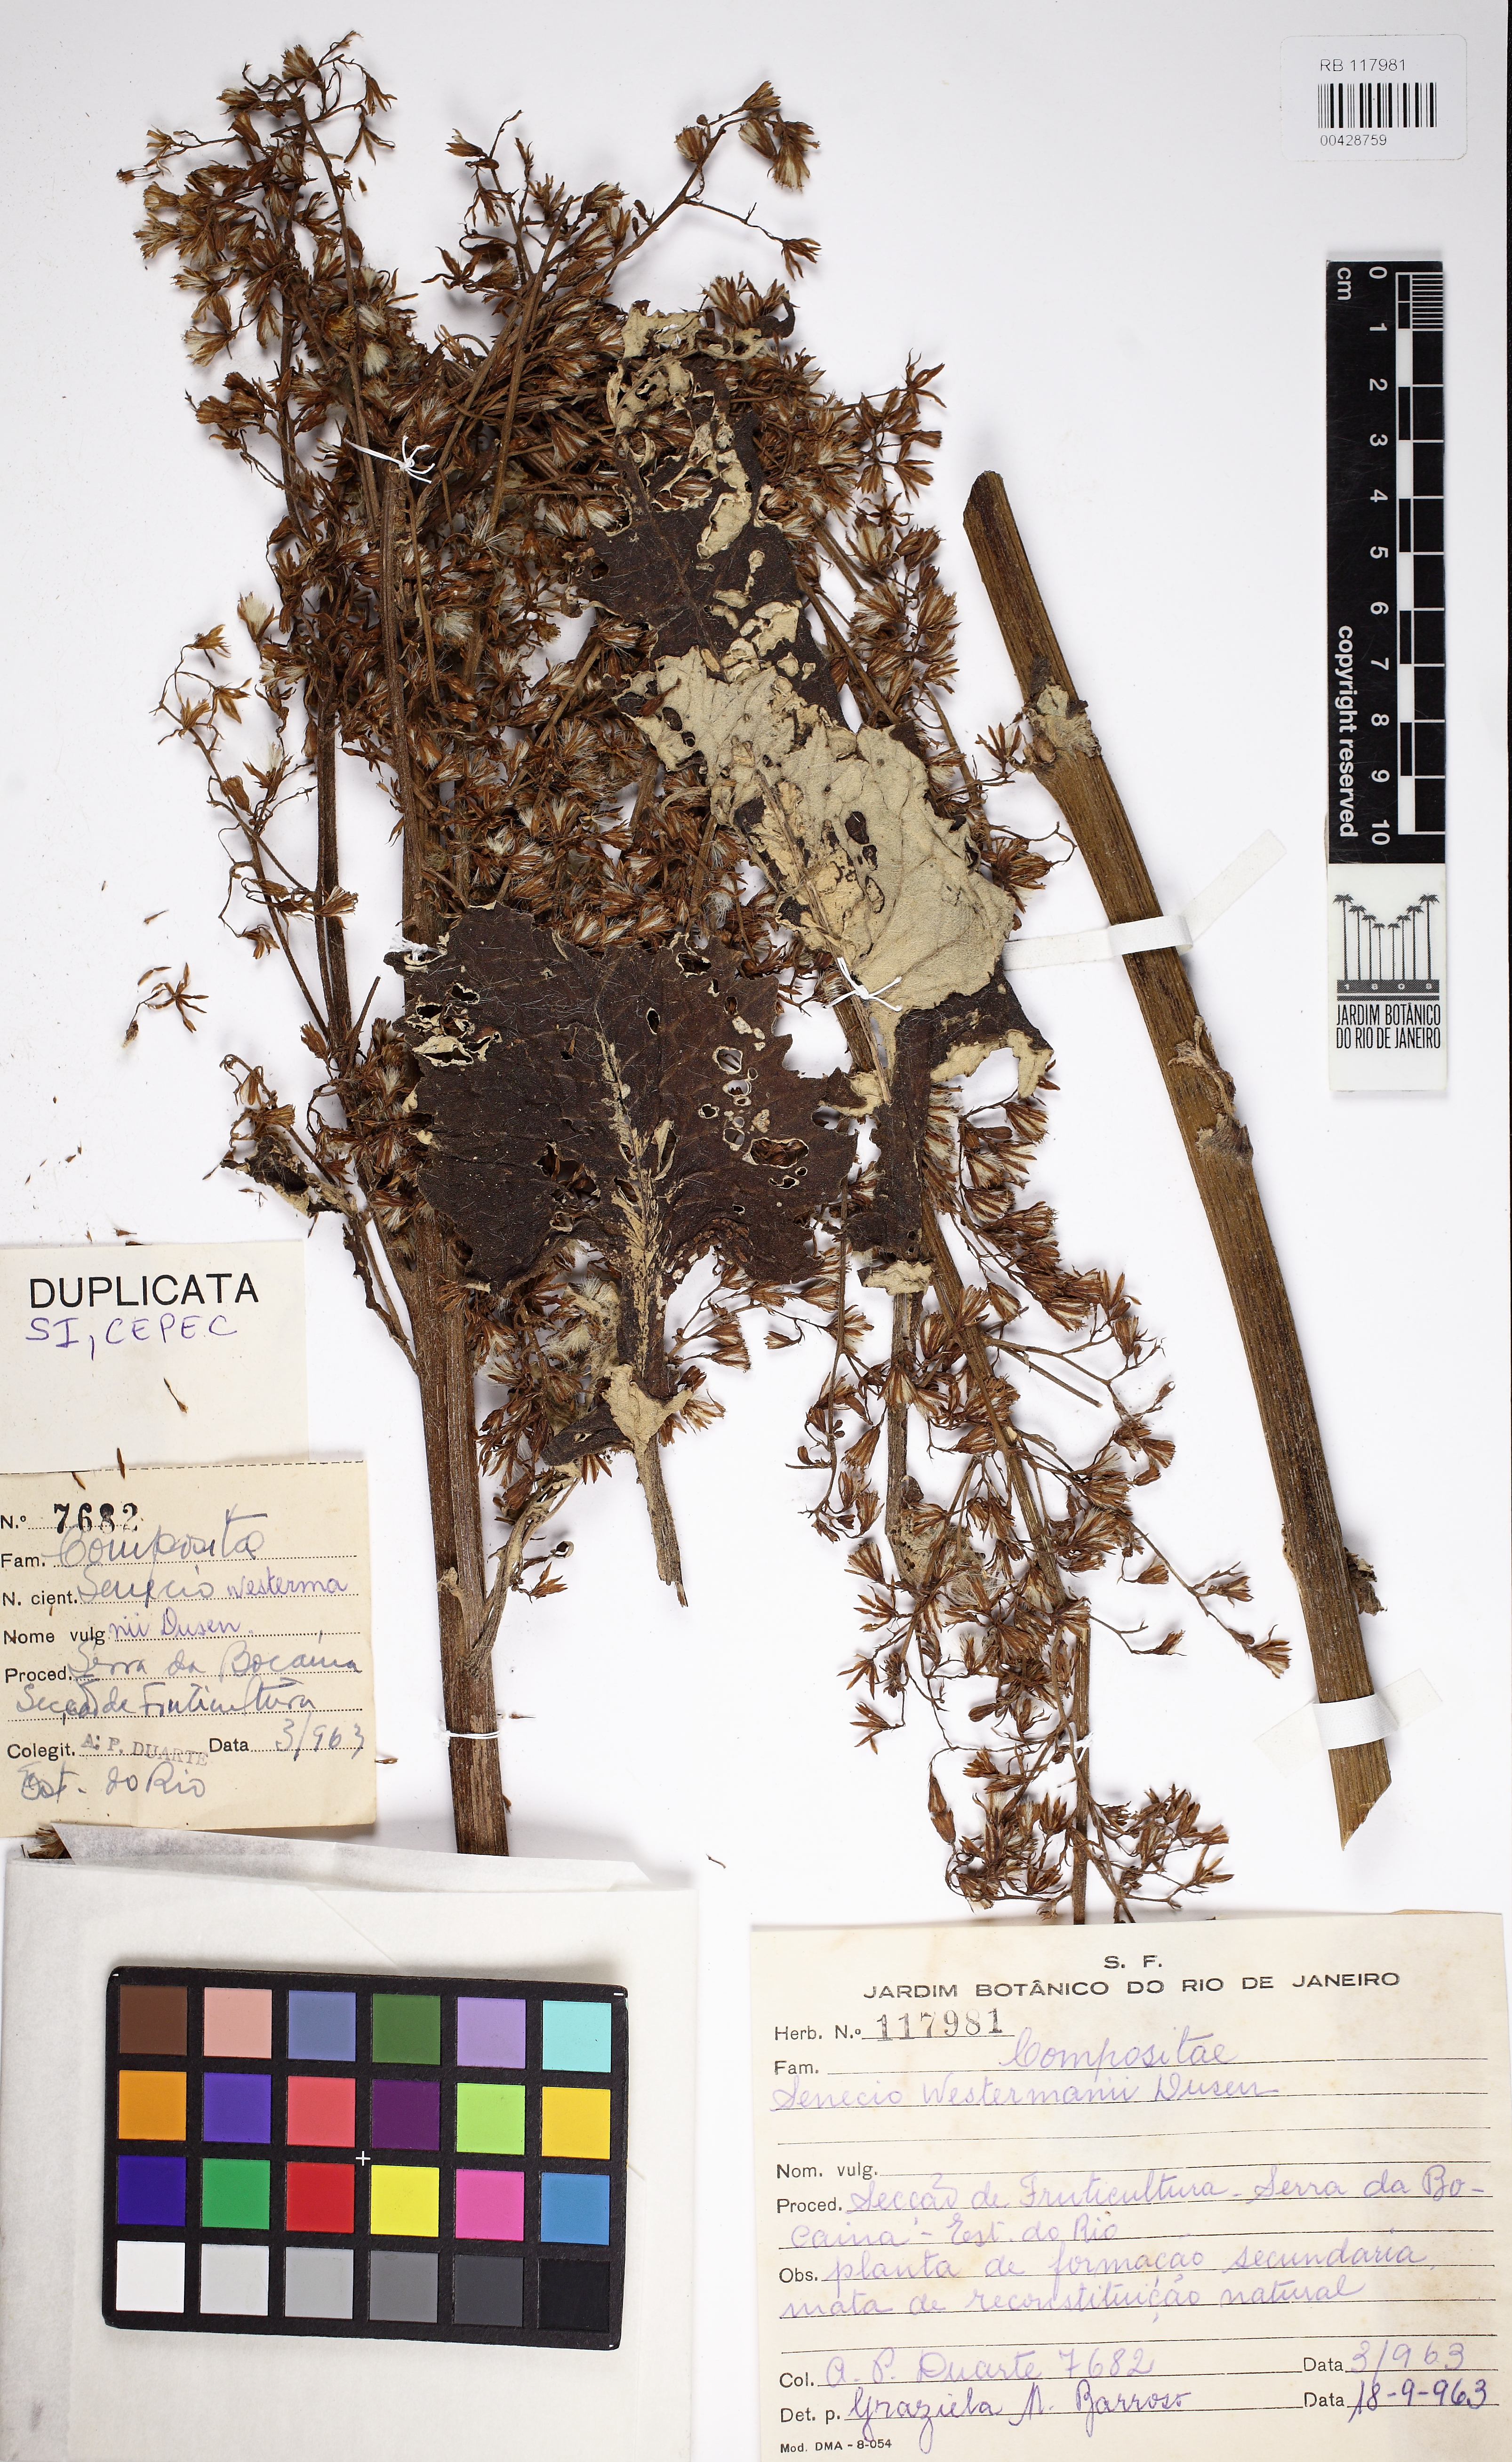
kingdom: Plantae
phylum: Tracheophyta
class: Magnoliopsida
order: Asterales
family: Asteraceae
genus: Senecio
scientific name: Senecio westermanii
